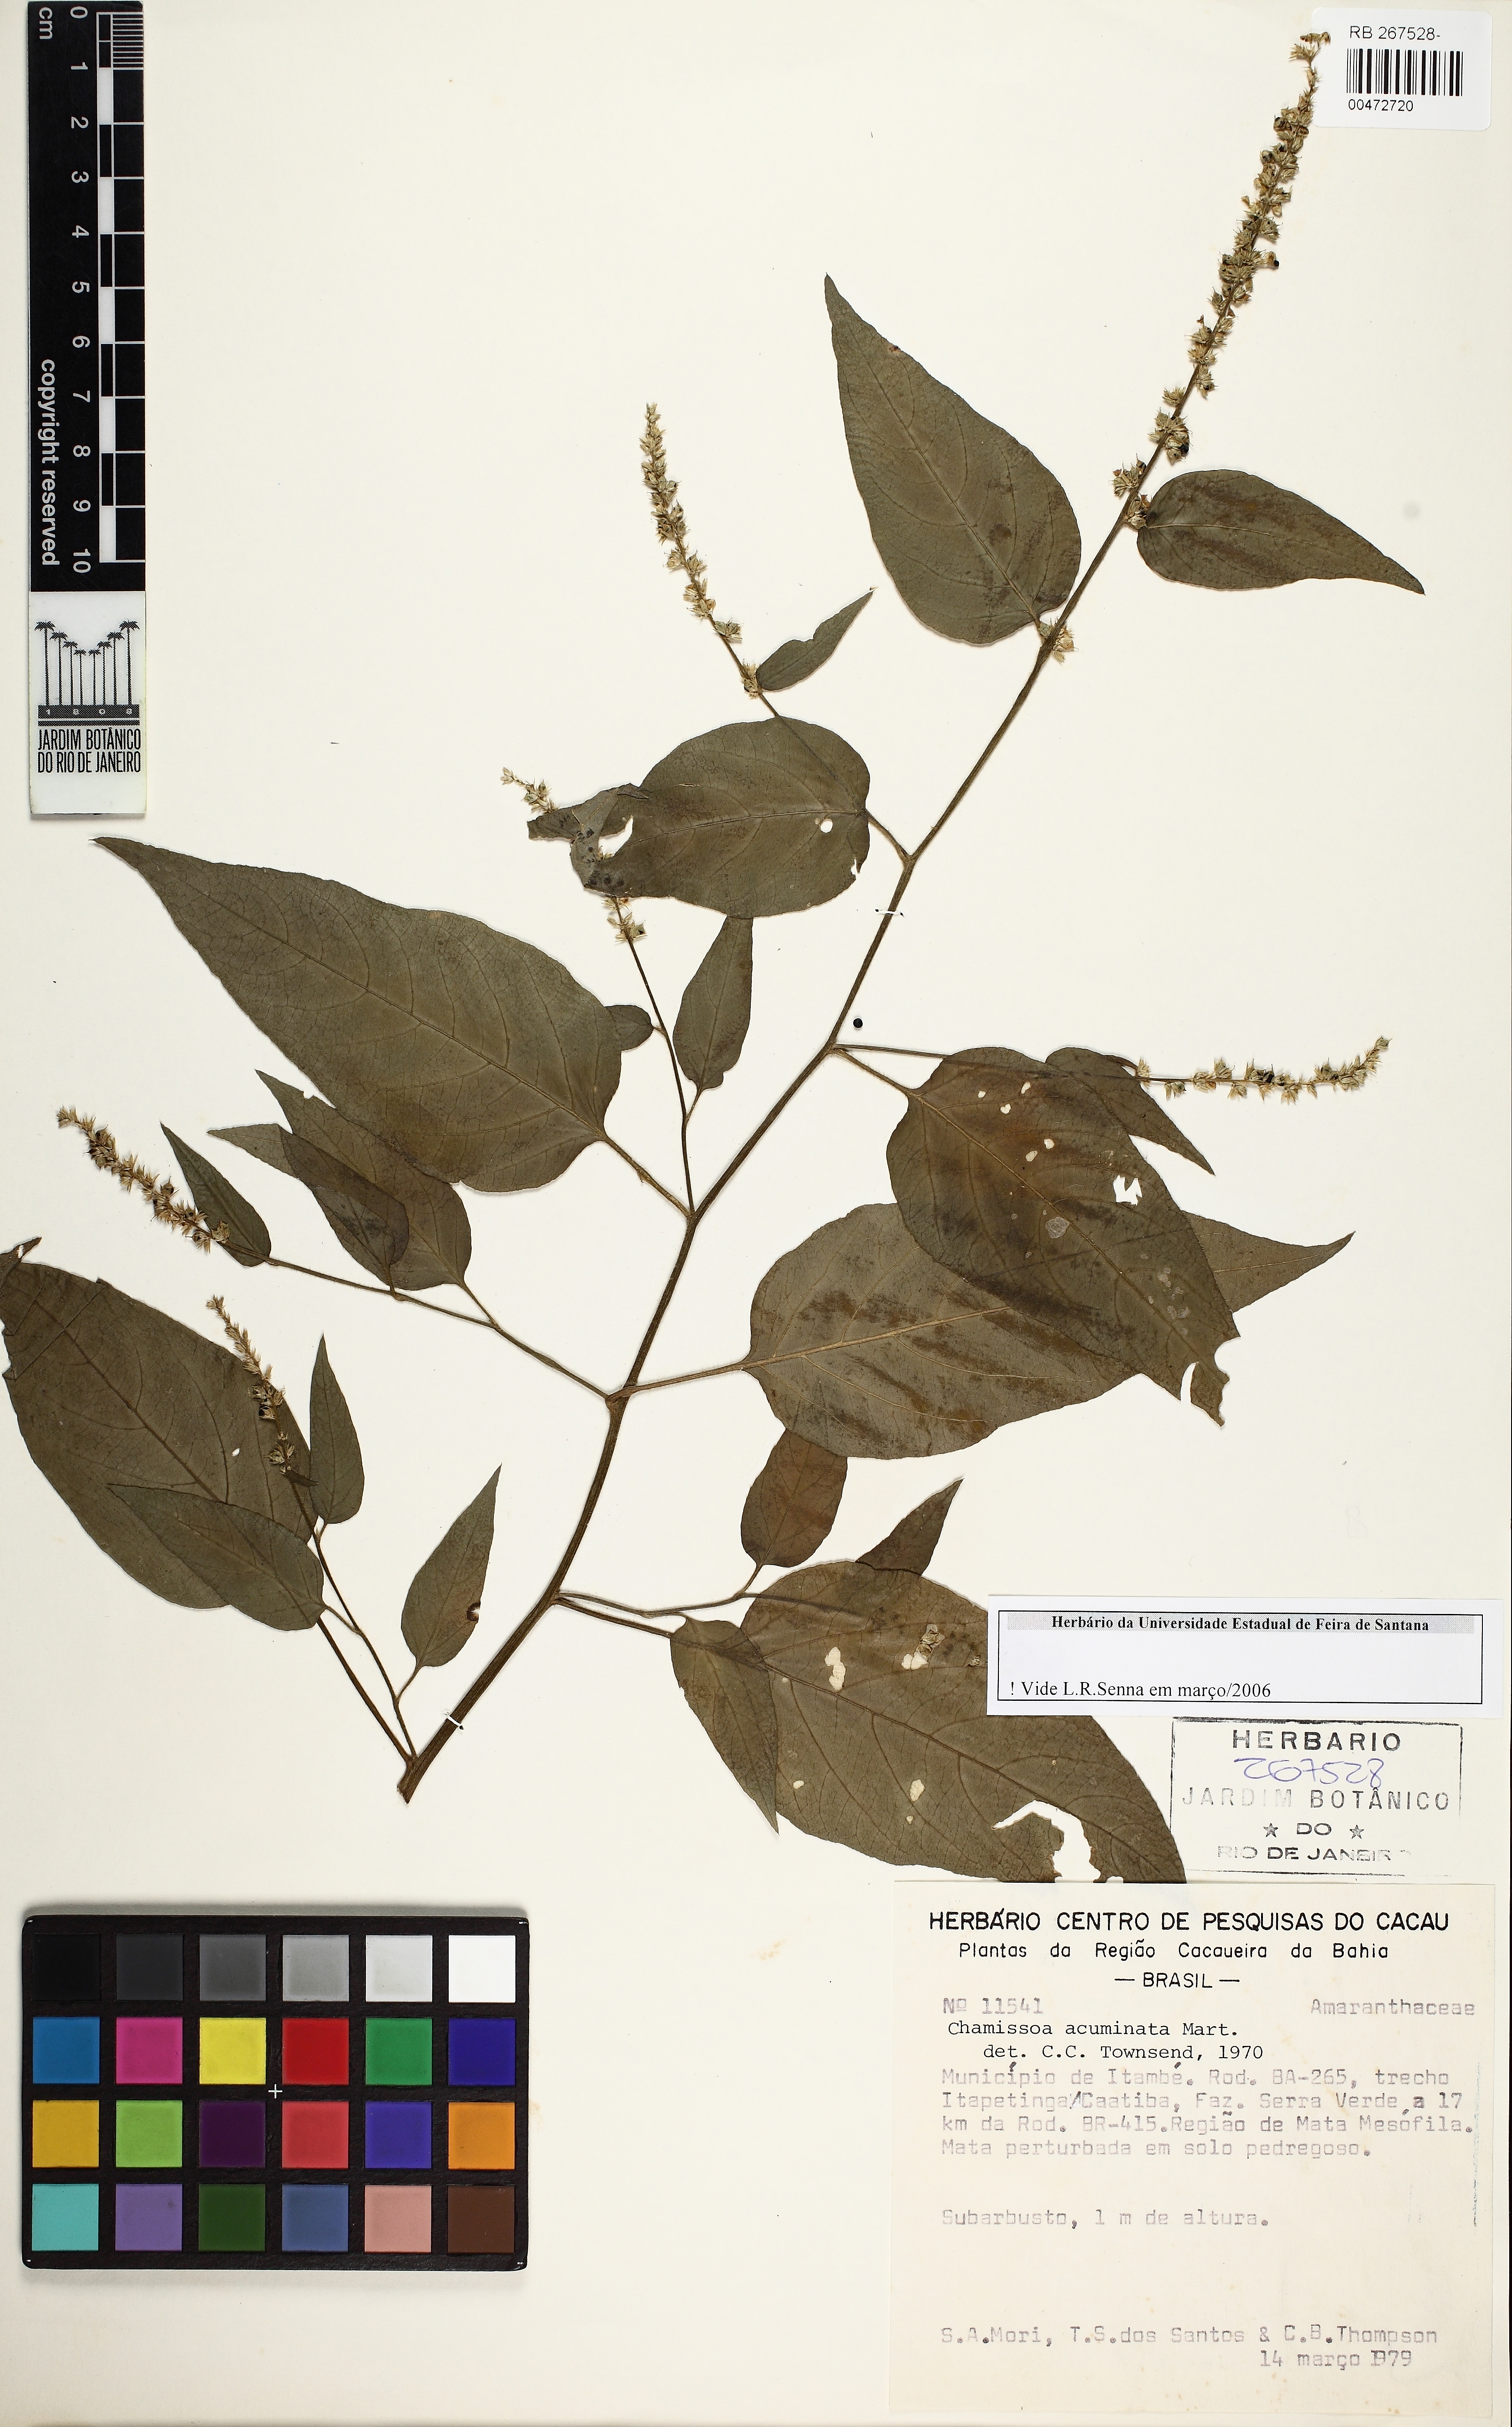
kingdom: Plantae
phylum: Tracheophyta
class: Magnoliopsida
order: Caryophyllales
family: Amaranthaceae
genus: Chamissoa
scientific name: Chamissoa acuminata
